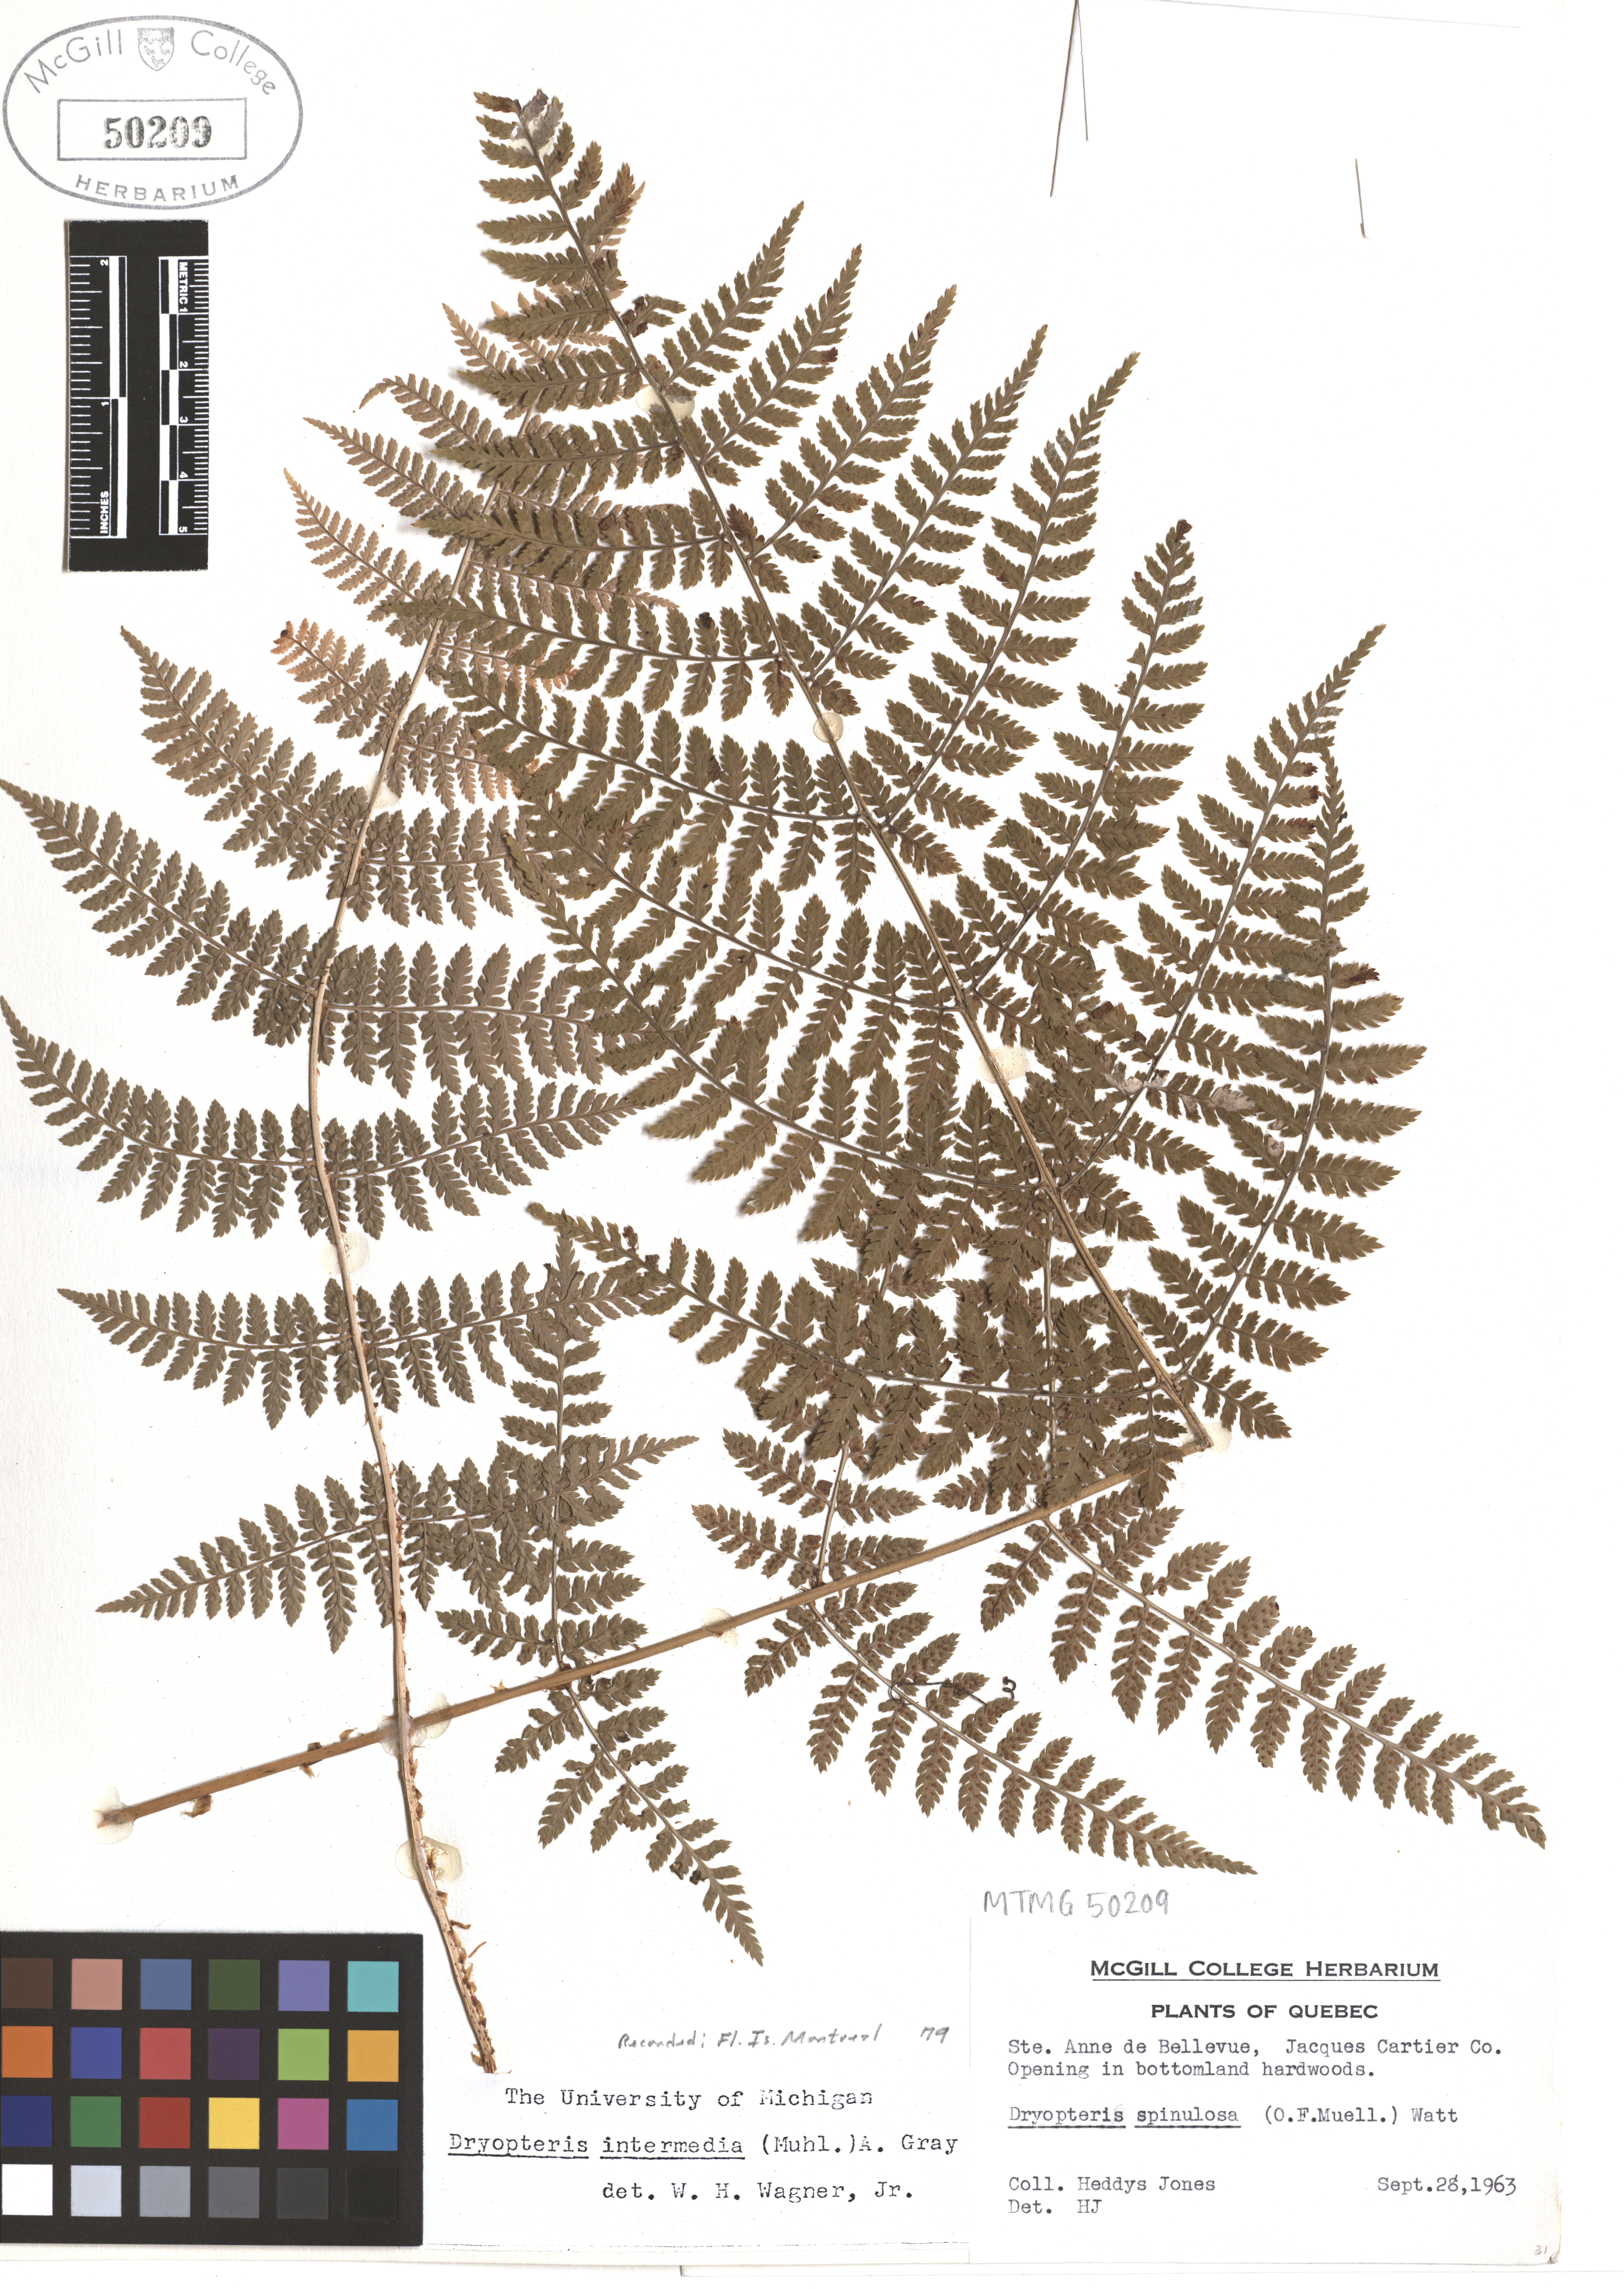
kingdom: Plantae
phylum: Tracheophyta
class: Polypodiopsida
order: Polypodiales
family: Dryopteridaceae
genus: Dryopteris
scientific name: Dryopteris intermedia
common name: Evergreen wood fern
